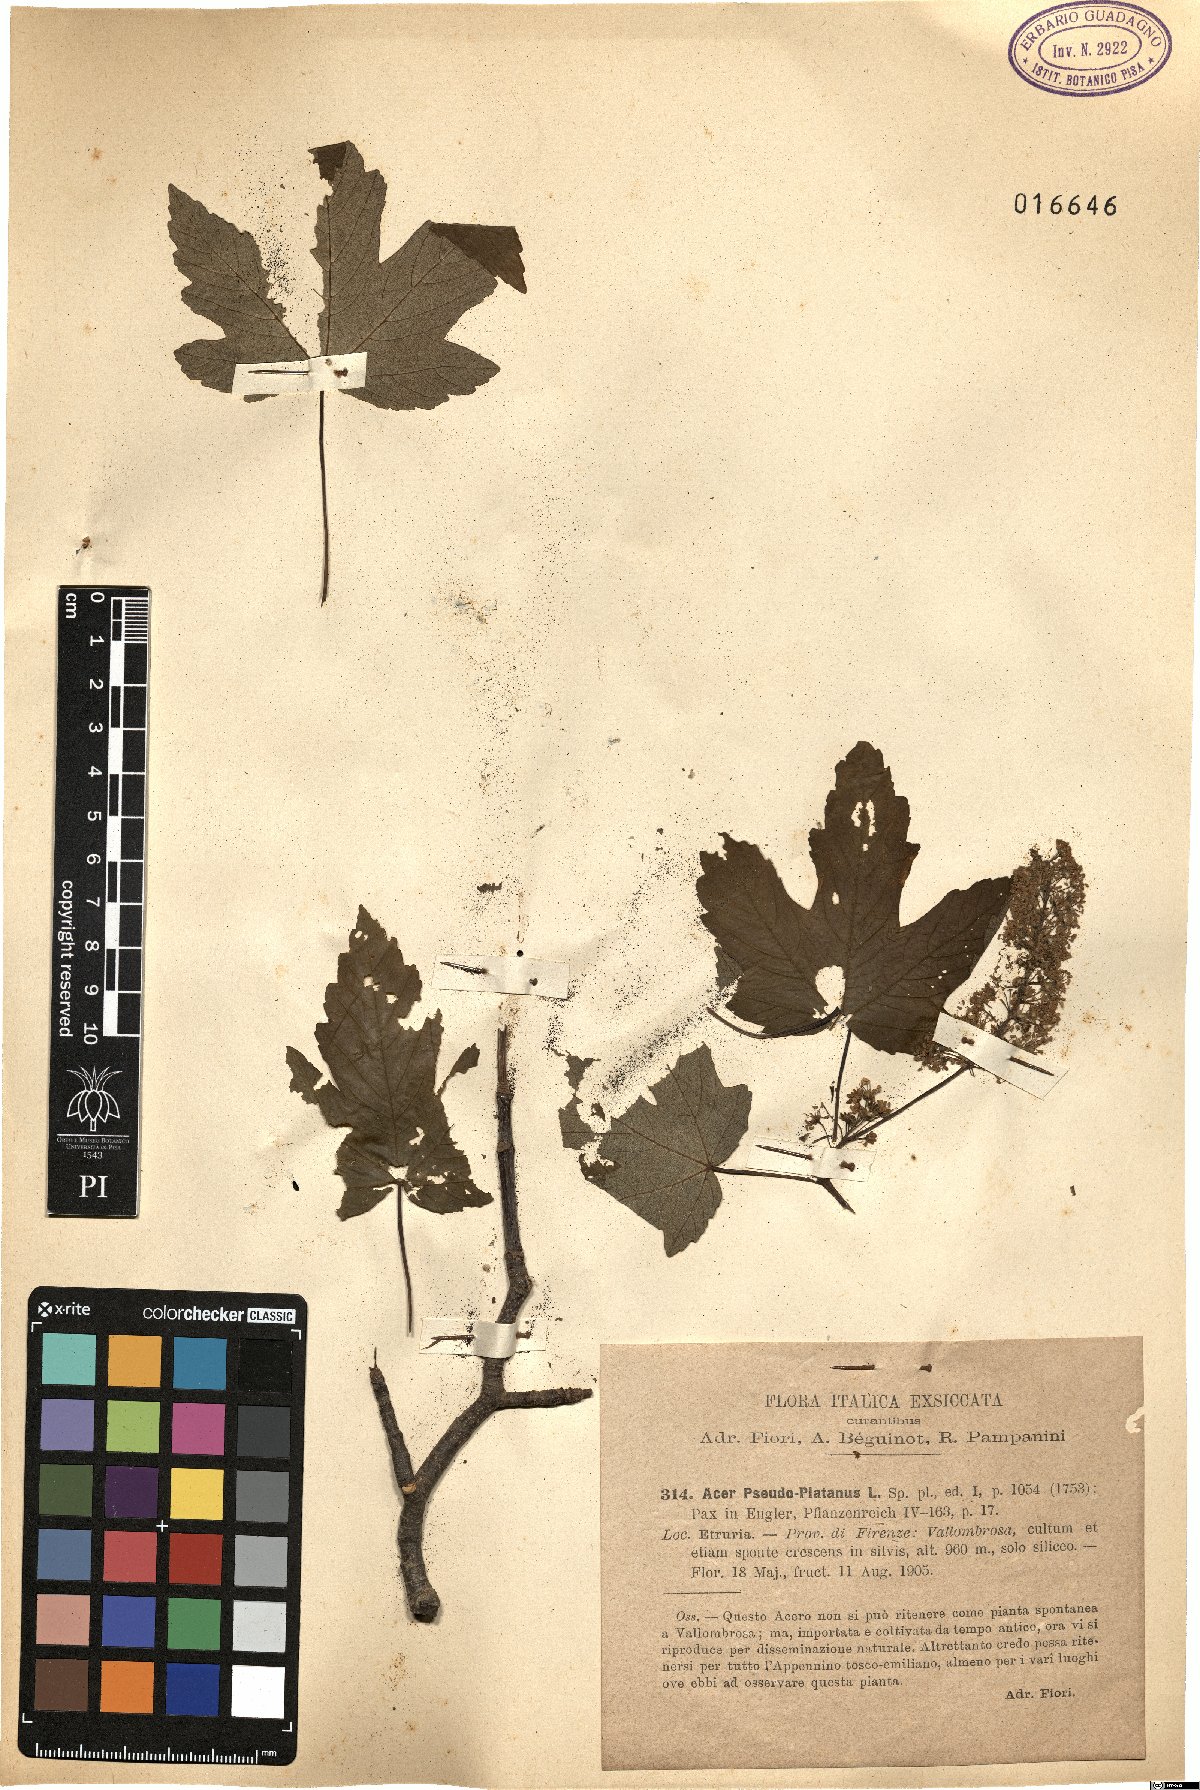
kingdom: Plantae
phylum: Tracheophyta
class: Magnoliopsida
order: Sapindales
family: Sapindaceae
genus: Acer
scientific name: Acer pseudoplatanus
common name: Sycamore
